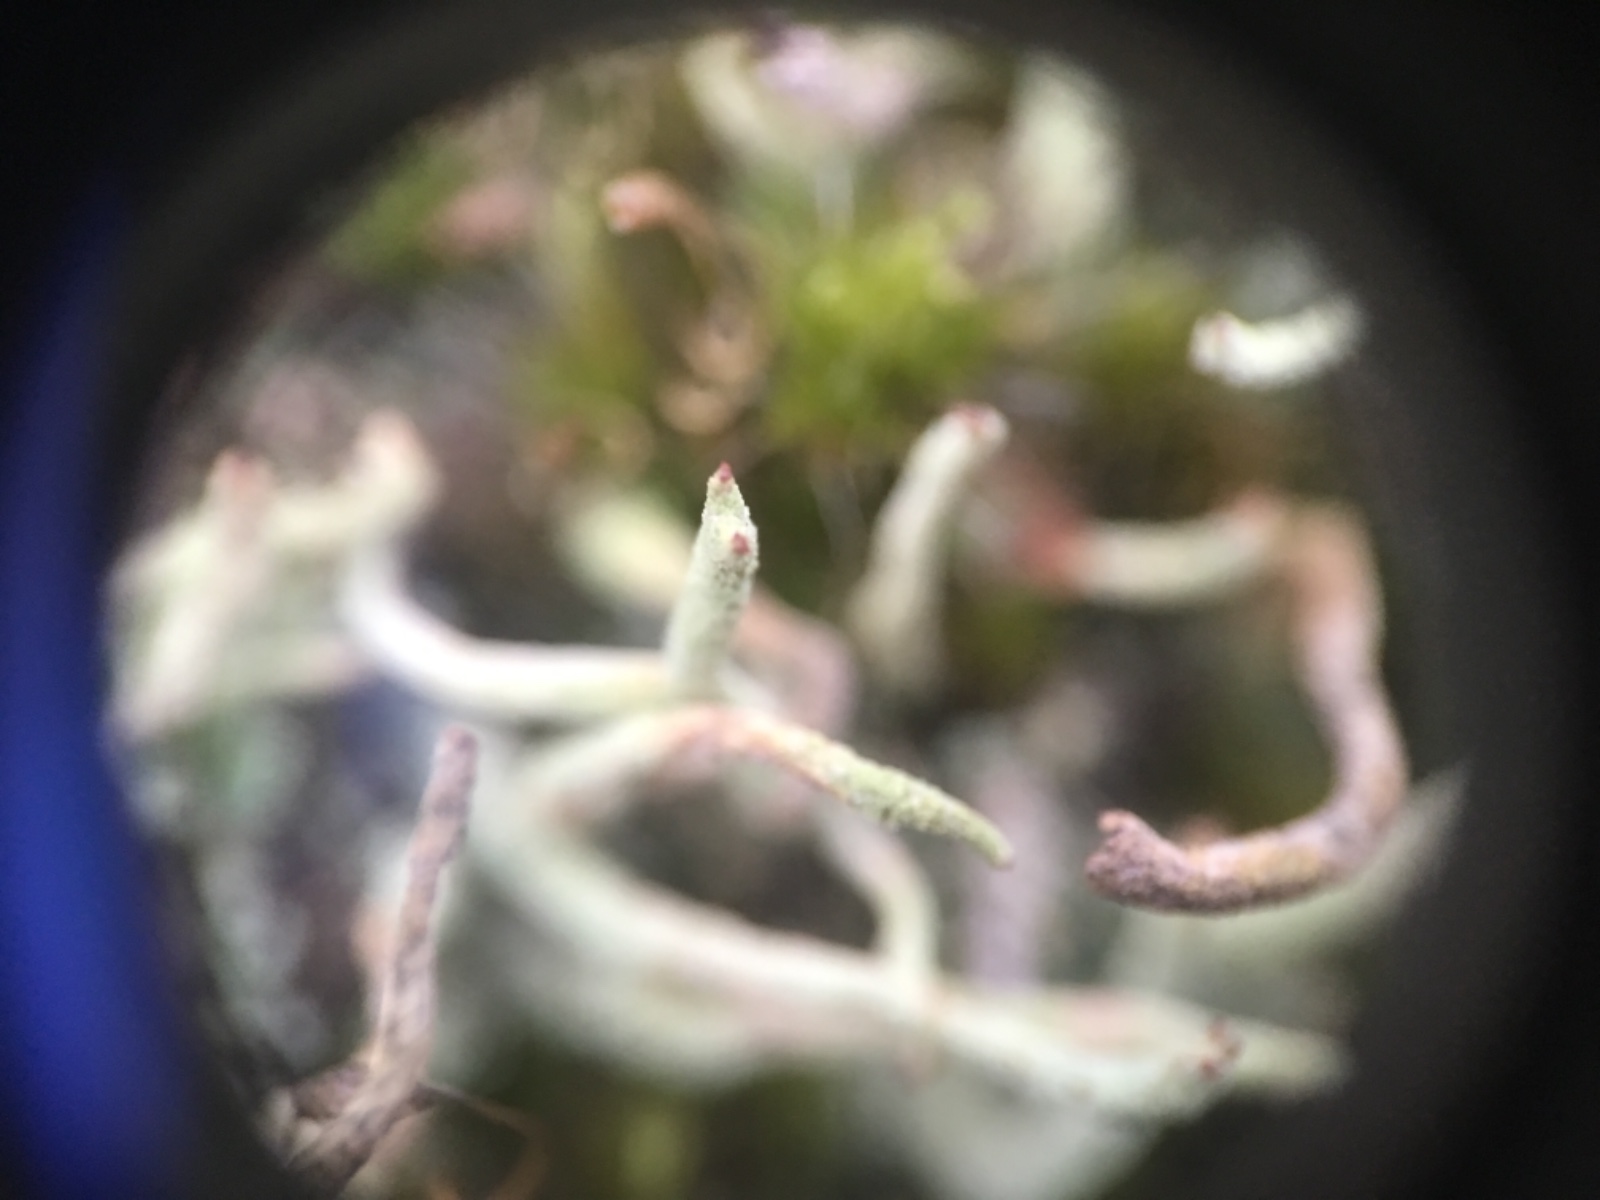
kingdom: Fungi
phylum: Ascomycota
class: Lecanoromycetes
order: Lecanorales
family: Cladoniaceae
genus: Cladonia
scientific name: Cladonia coniocraea
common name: træfods-bægerlav
